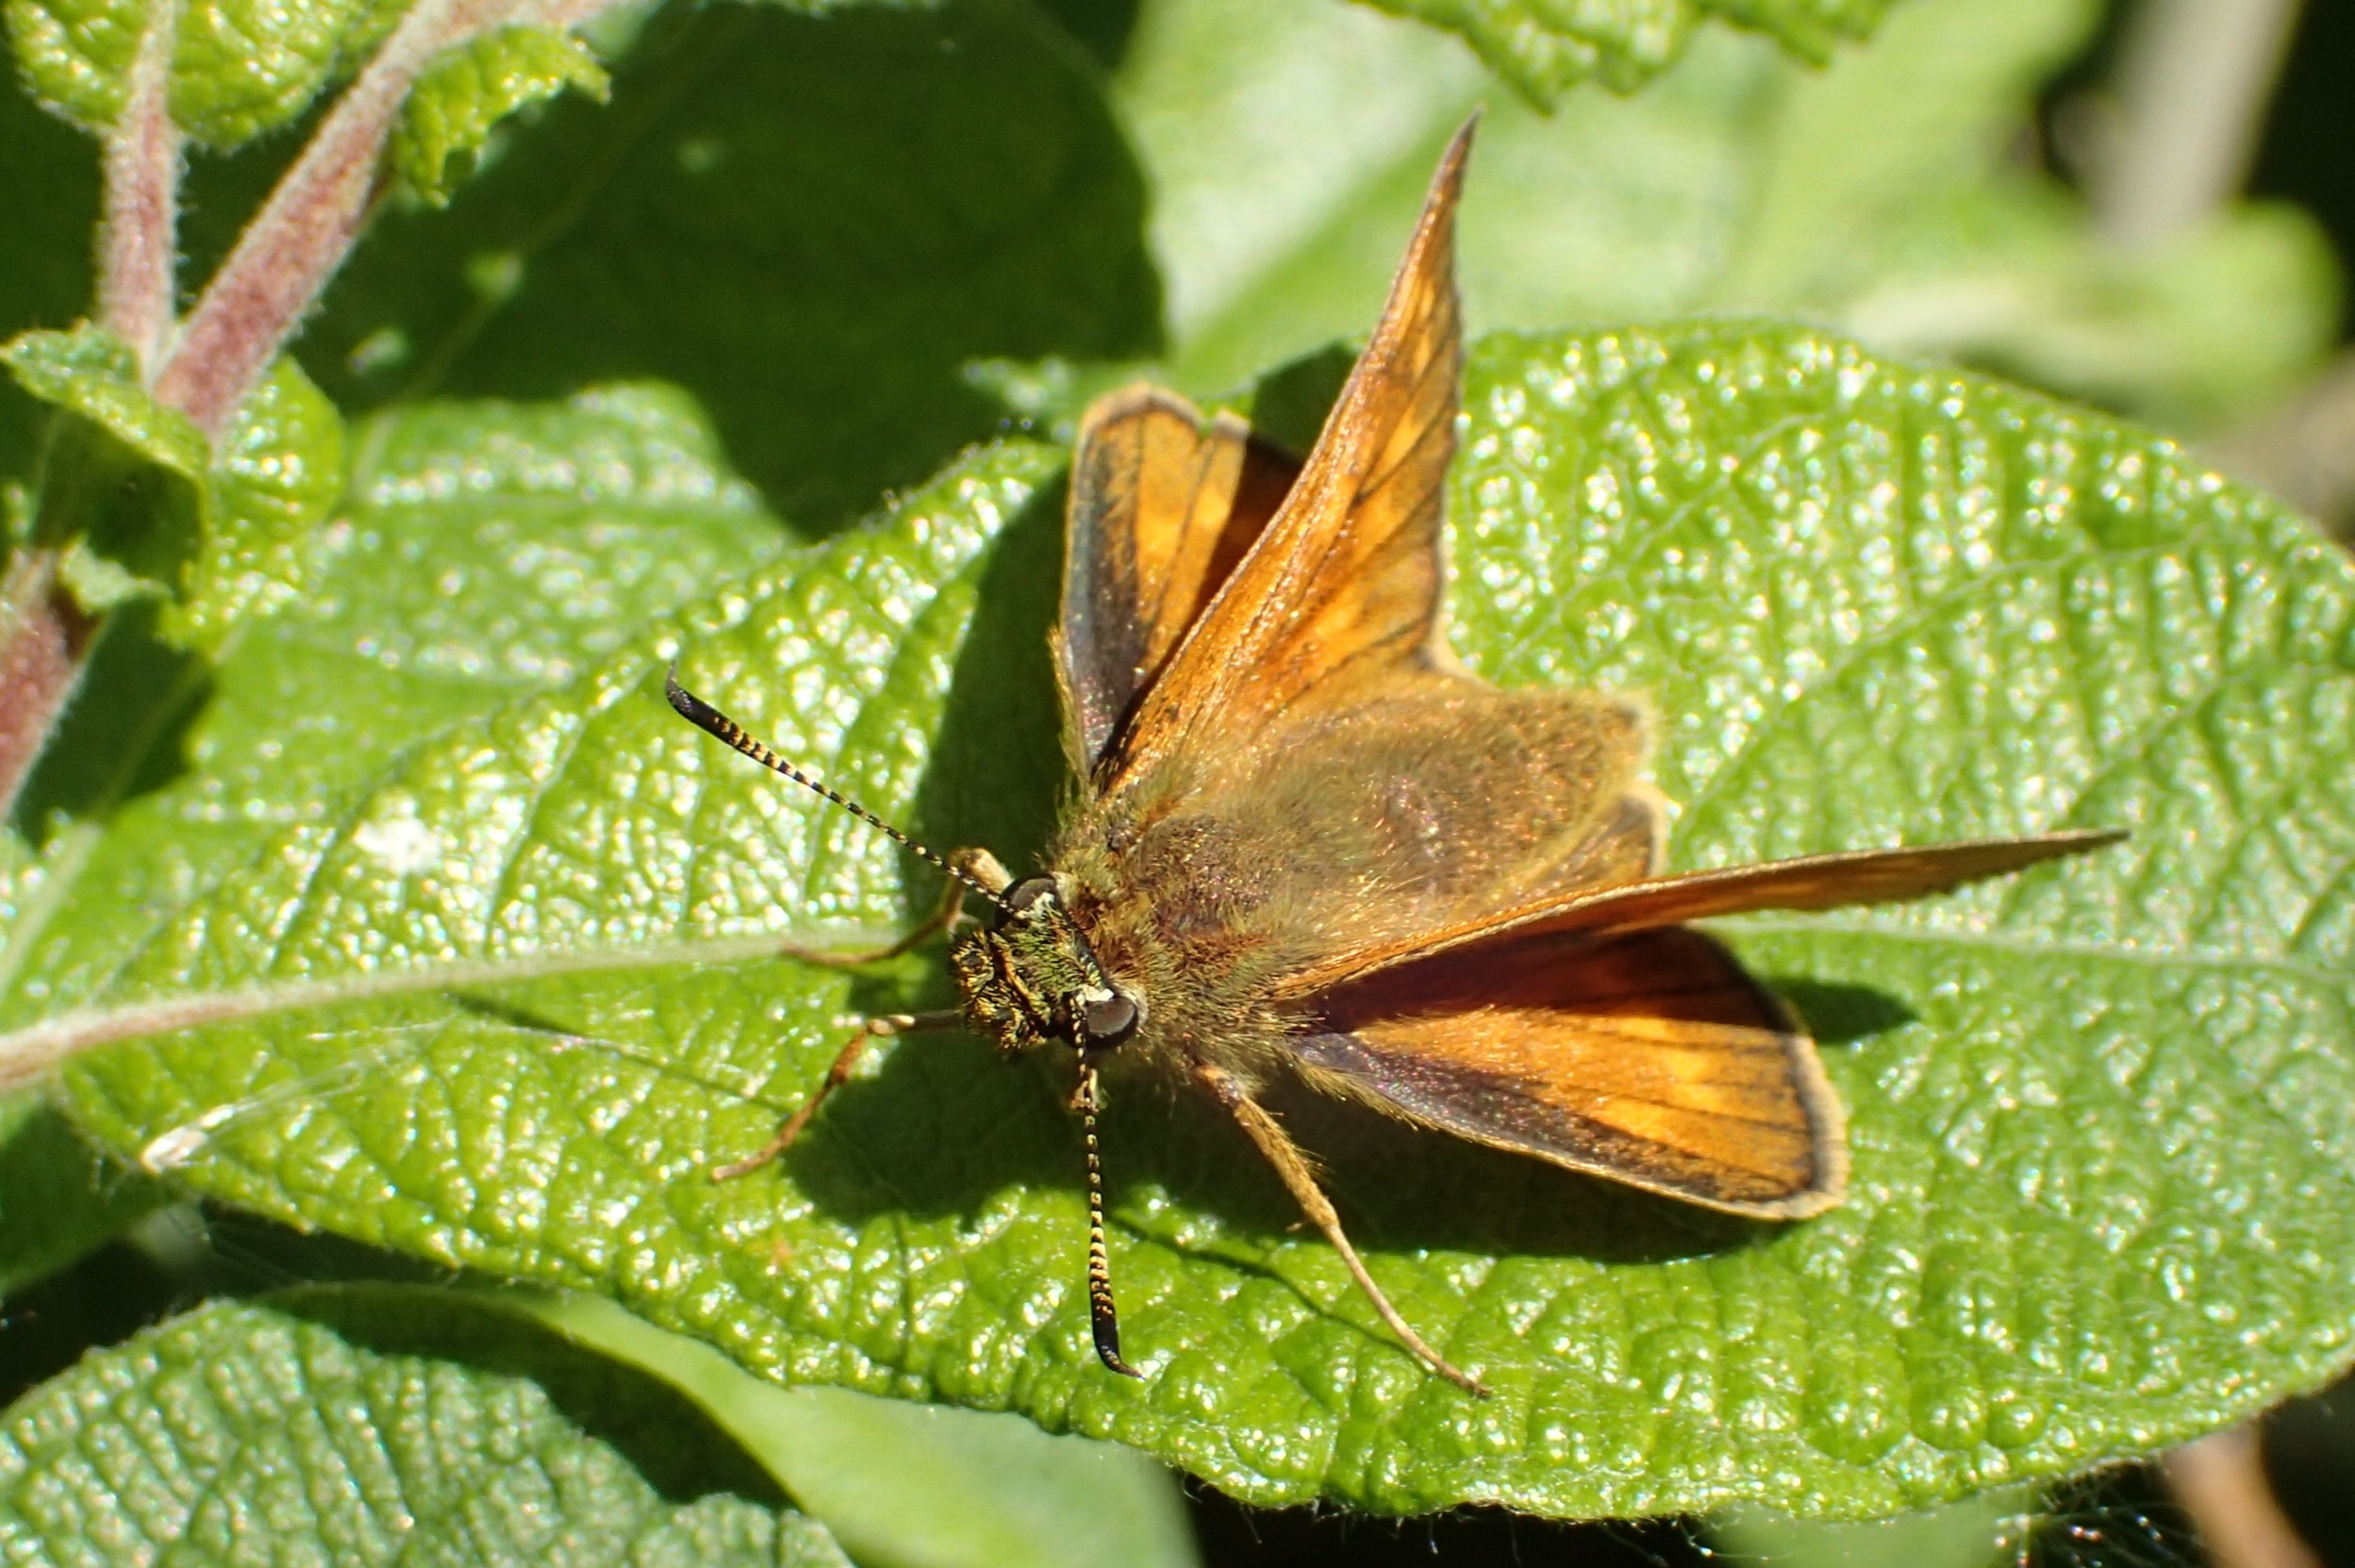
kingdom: Animalia
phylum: Arthropoda
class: Insecta
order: Lepidoptera
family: Hesperiidae
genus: Ochlodes
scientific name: Ochlodes venata
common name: Stor bredpande
